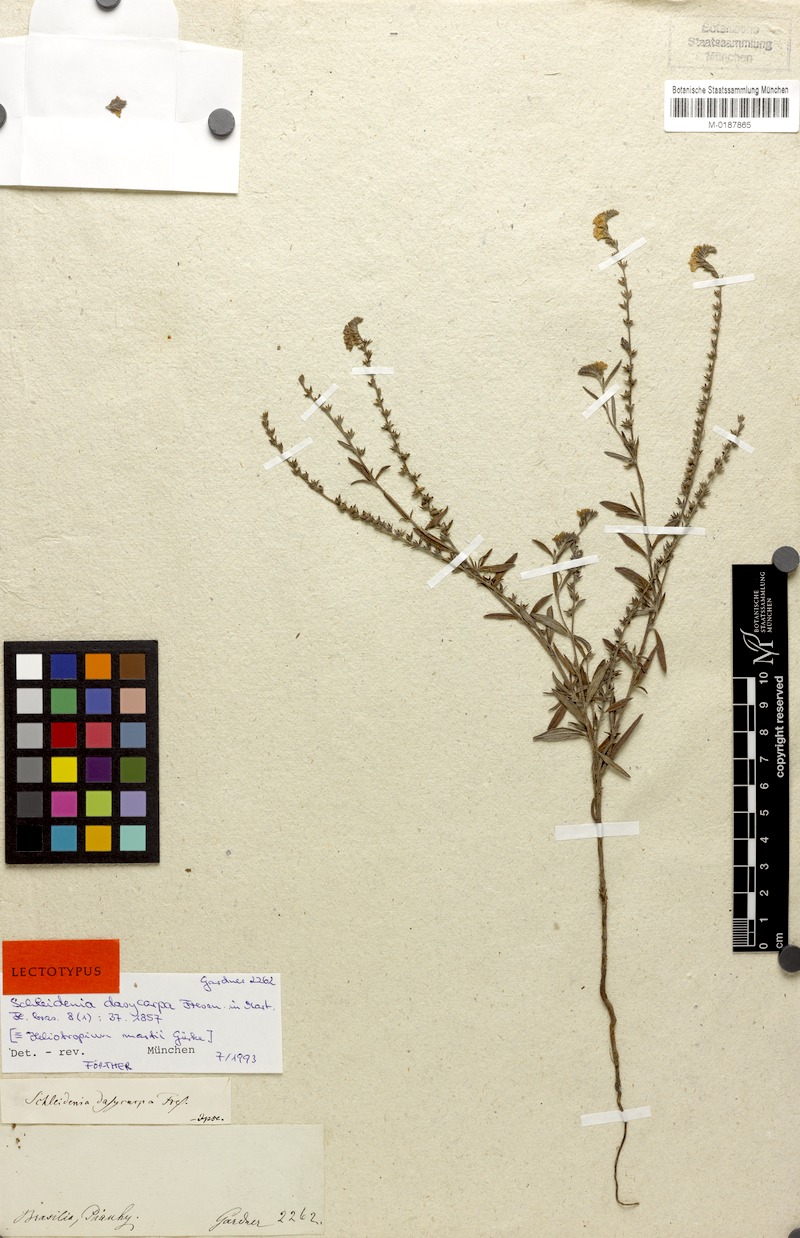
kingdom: Plantae
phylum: Tracheophyta
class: Magnoliopsida
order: Boraginales
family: Heliotropiaceae
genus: Euploca
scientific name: Euploca fruticosa
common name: Key west heliotrope
